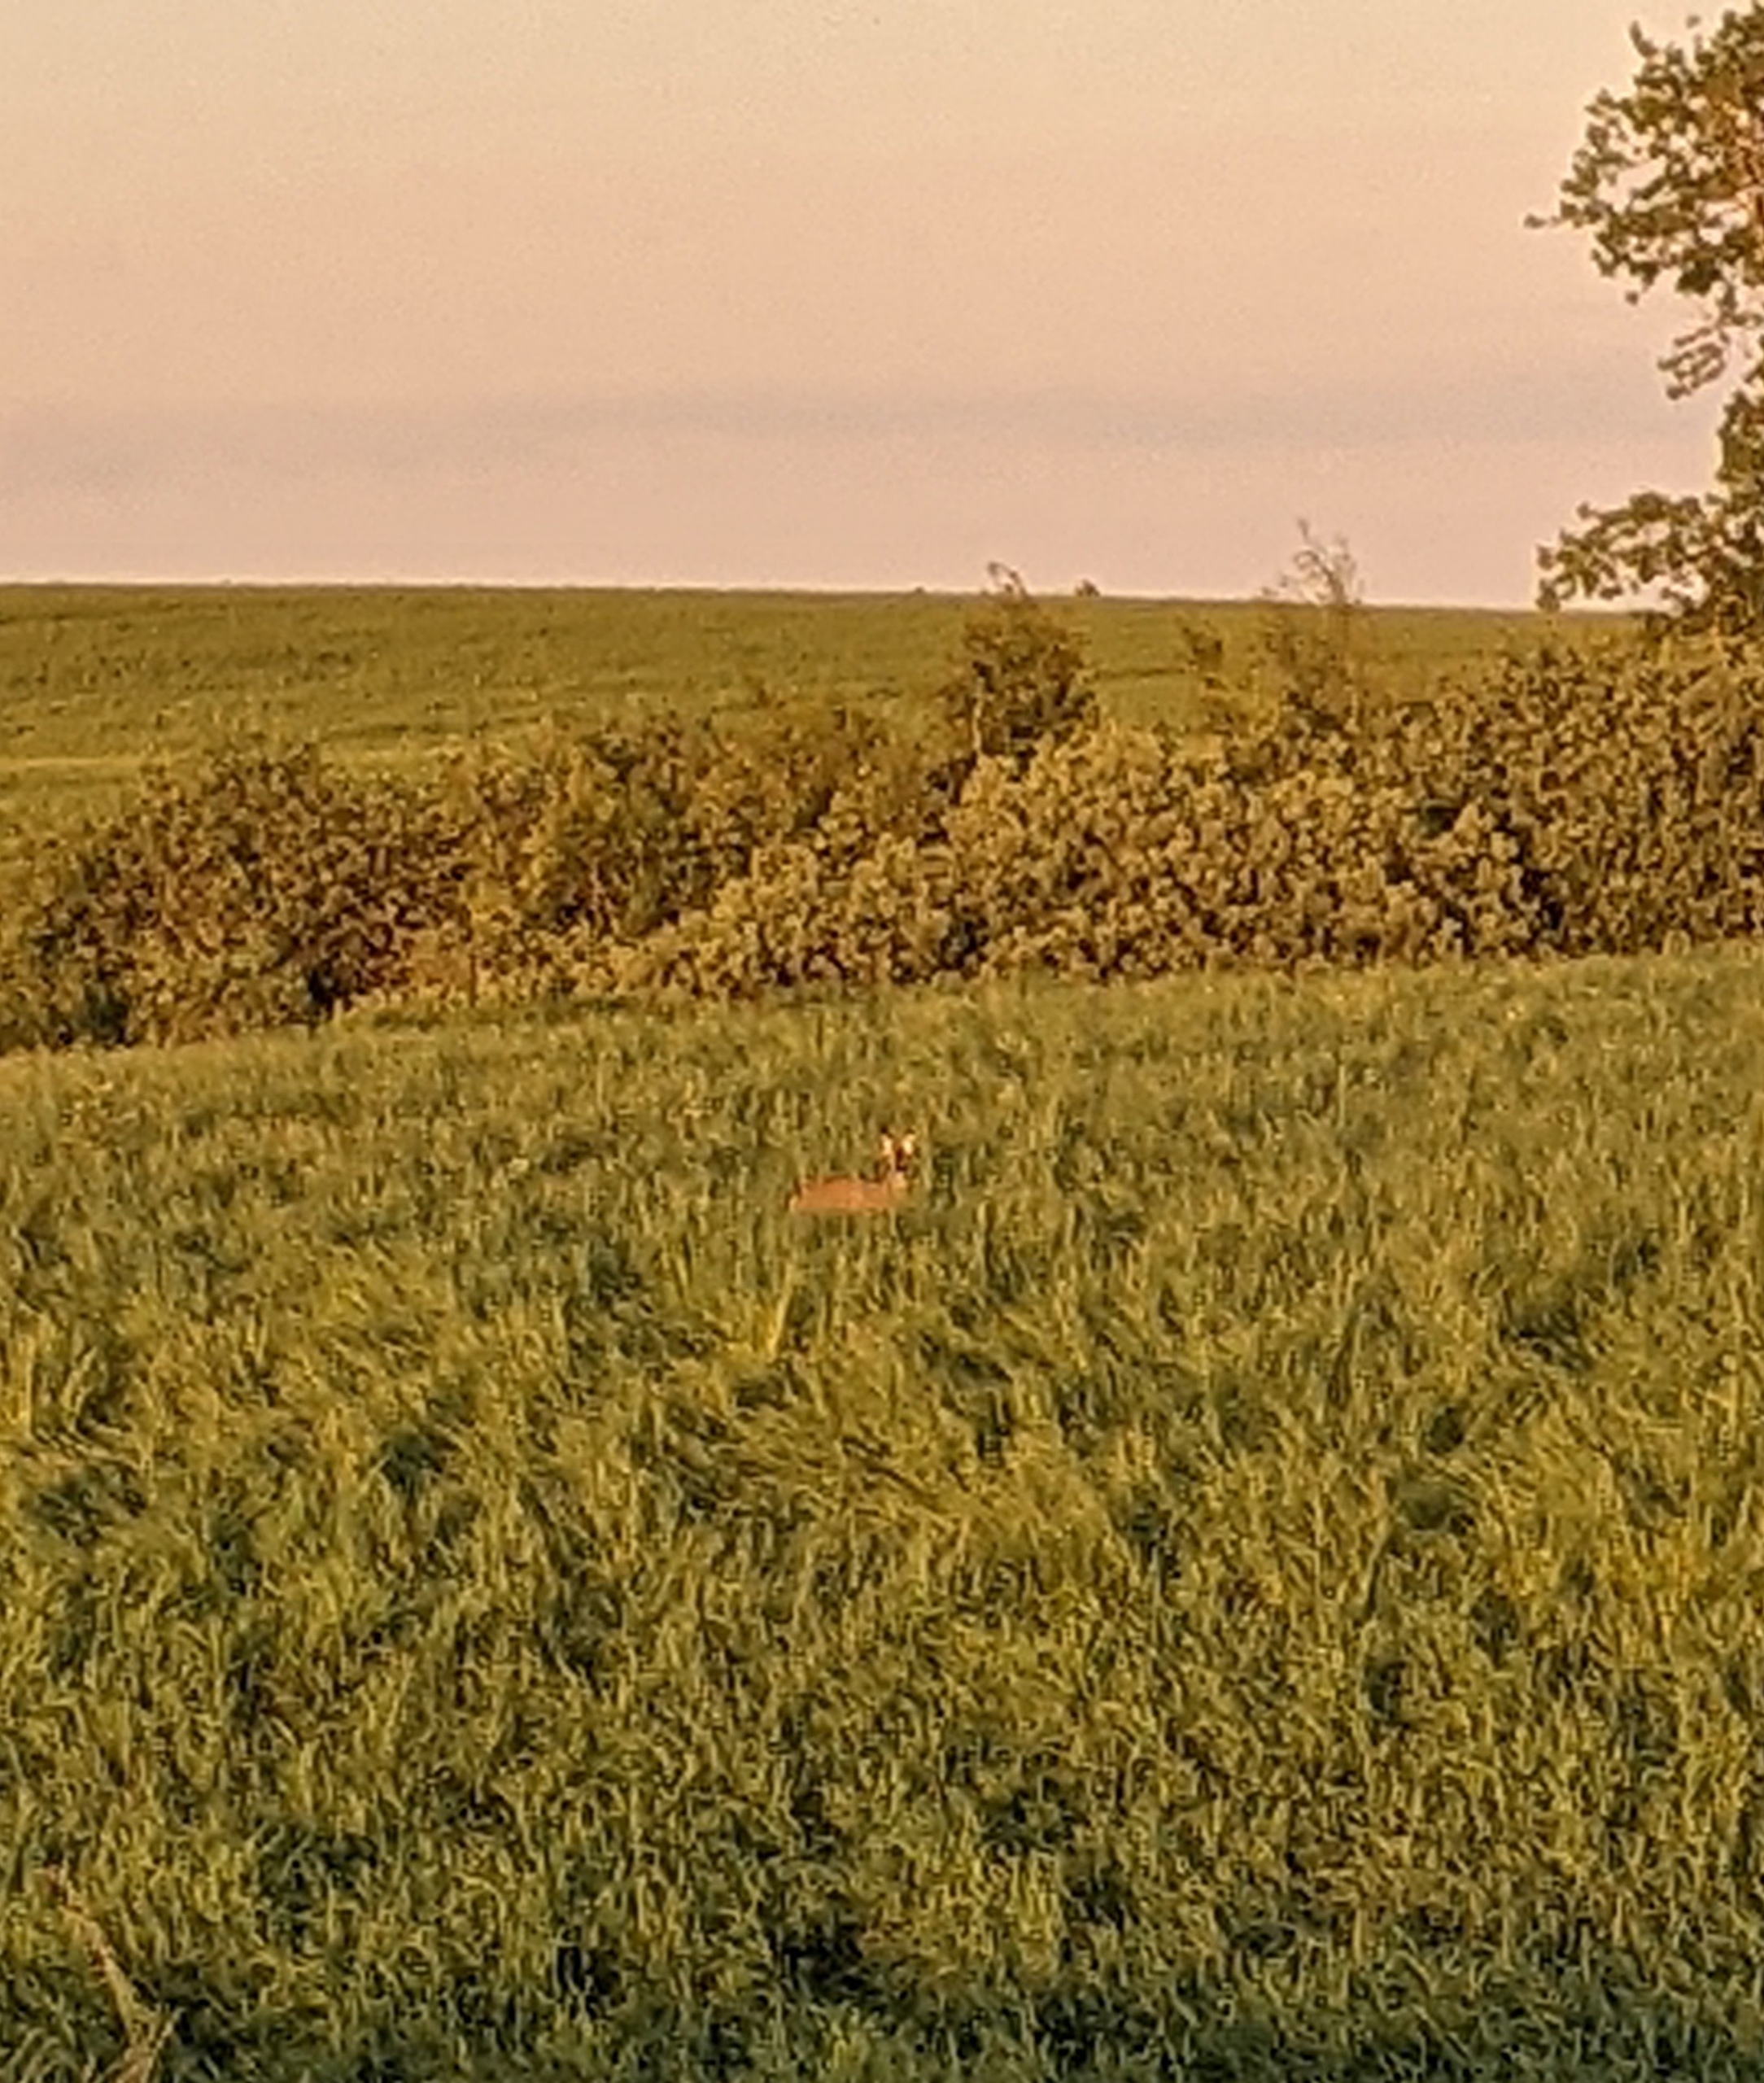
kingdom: Animalia
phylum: Chordata
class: Mammalia
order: Artiodactyla
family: Cervidae
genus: Capreolus
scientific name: Capreolus capreolus
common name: Rådyr
